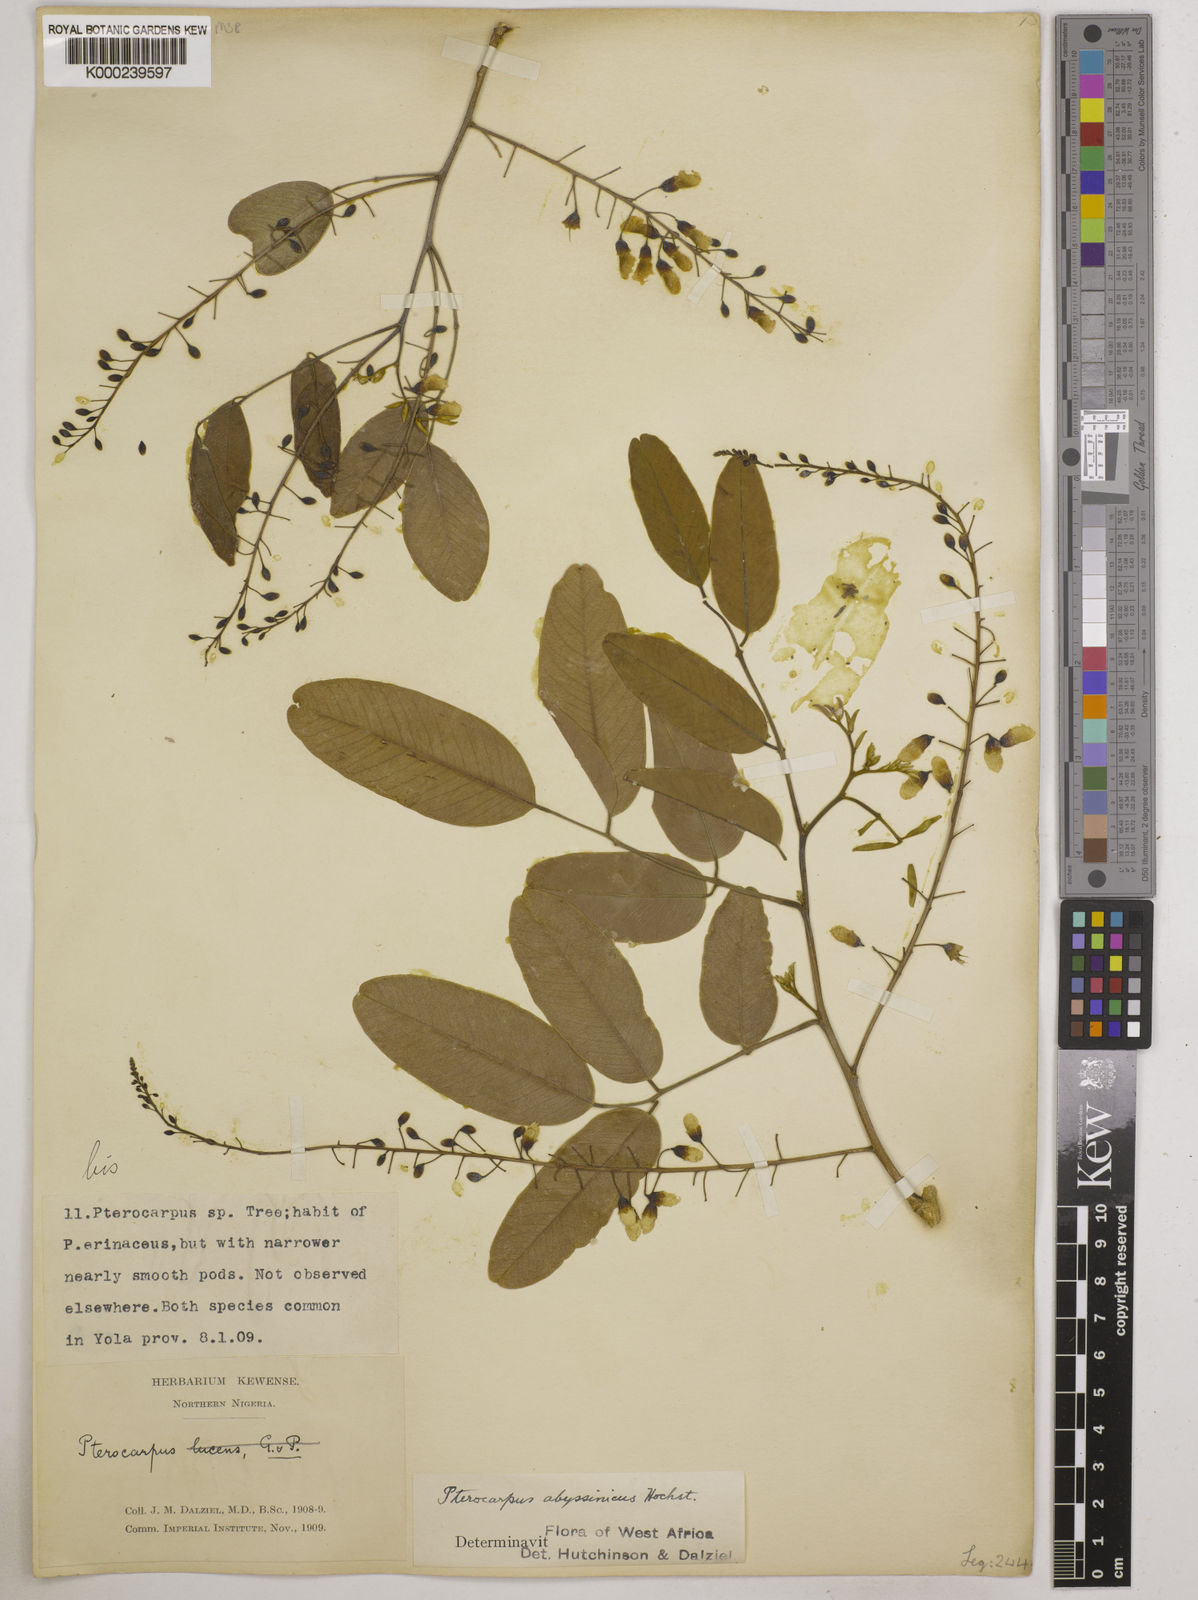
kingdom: Plantae
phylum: Tracheophyta
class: Magnoliopsida
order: Fabales
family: Fabaceae
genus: Pterocarpus
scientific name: Pterocarpus lucens
